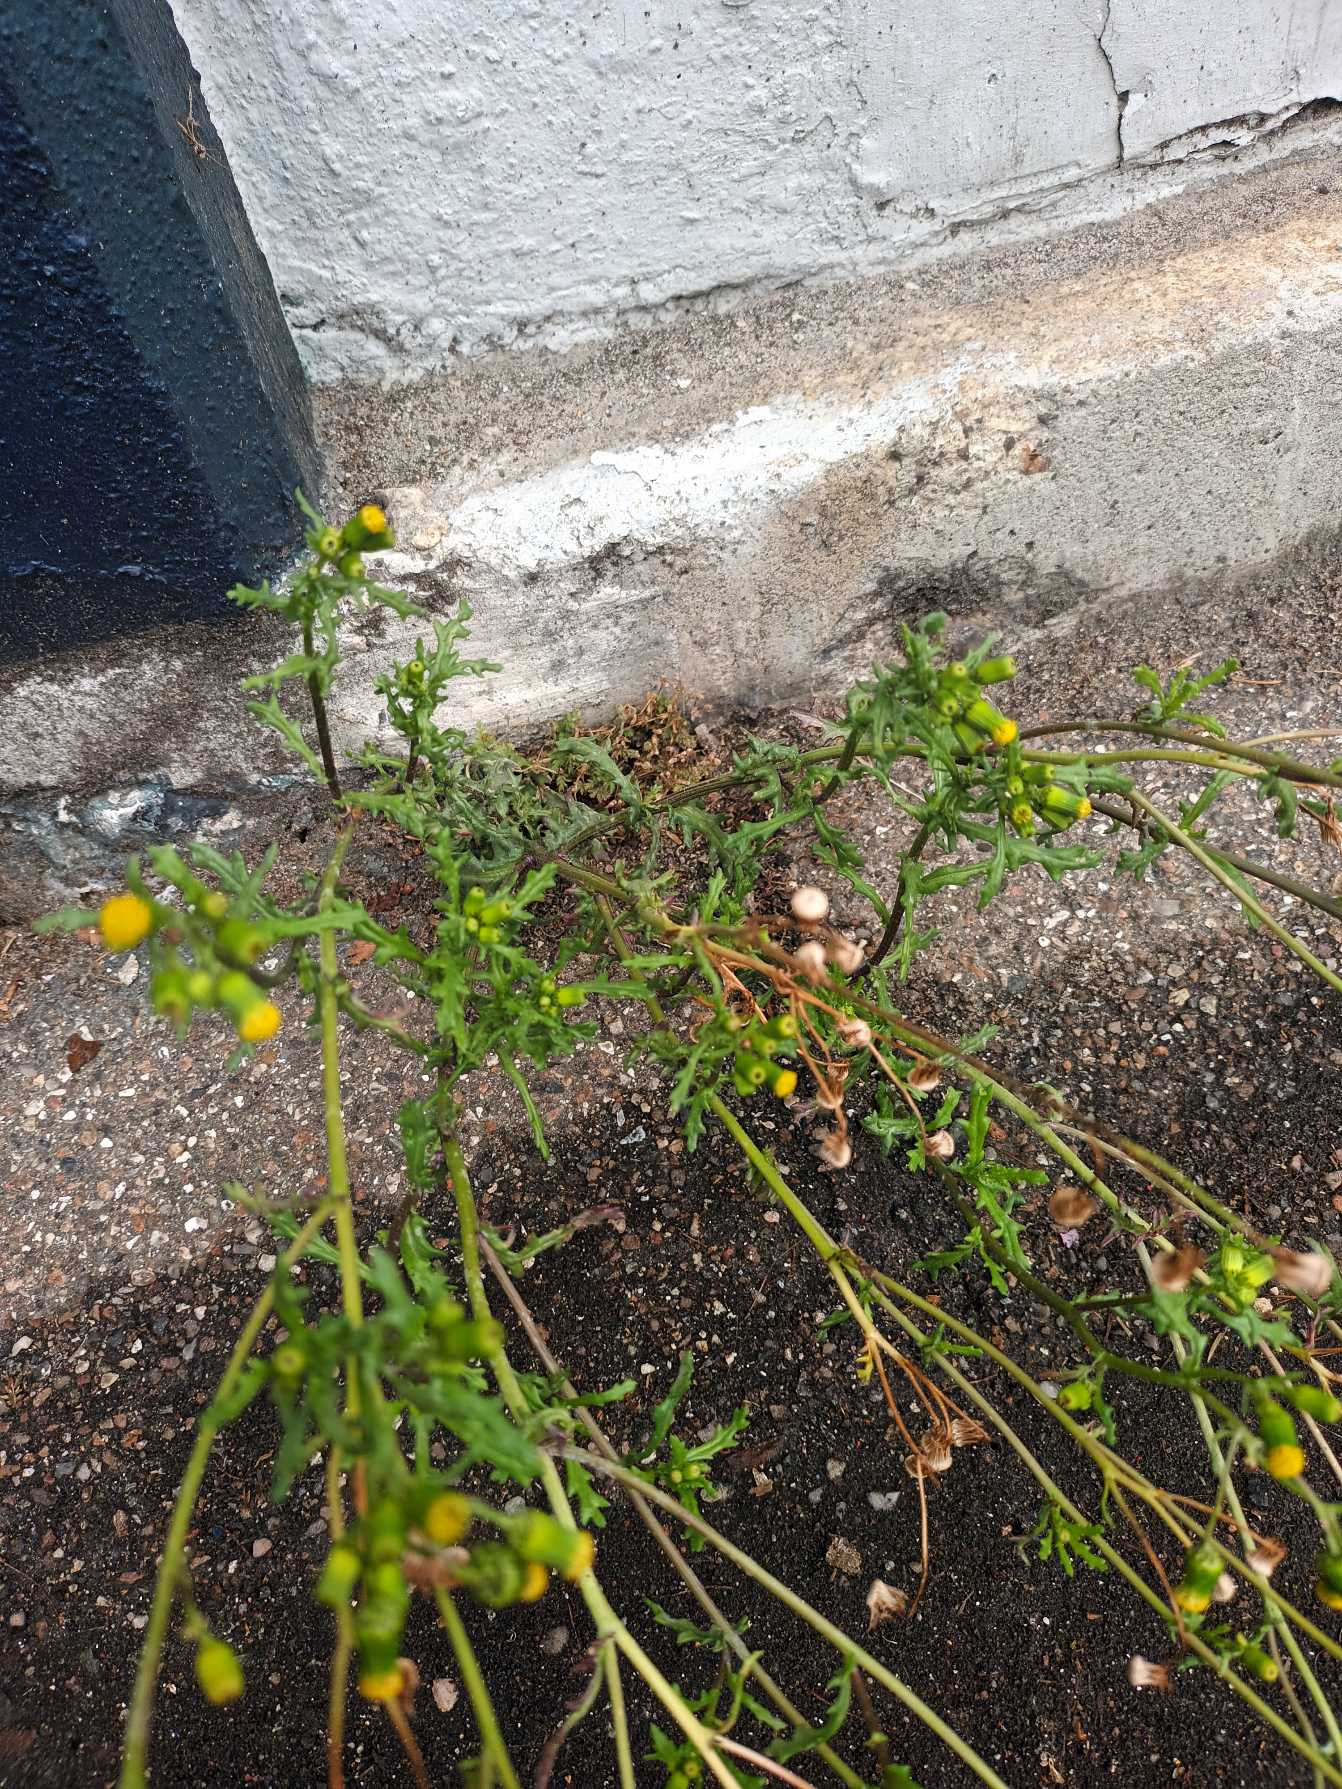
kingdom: Plantae
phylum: Tracheophyta
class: Magnoliopsida
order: Asterales
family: Asteraceae
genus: Senecio
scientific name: Senecio vulgaris
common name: Almindelig brandbæger
